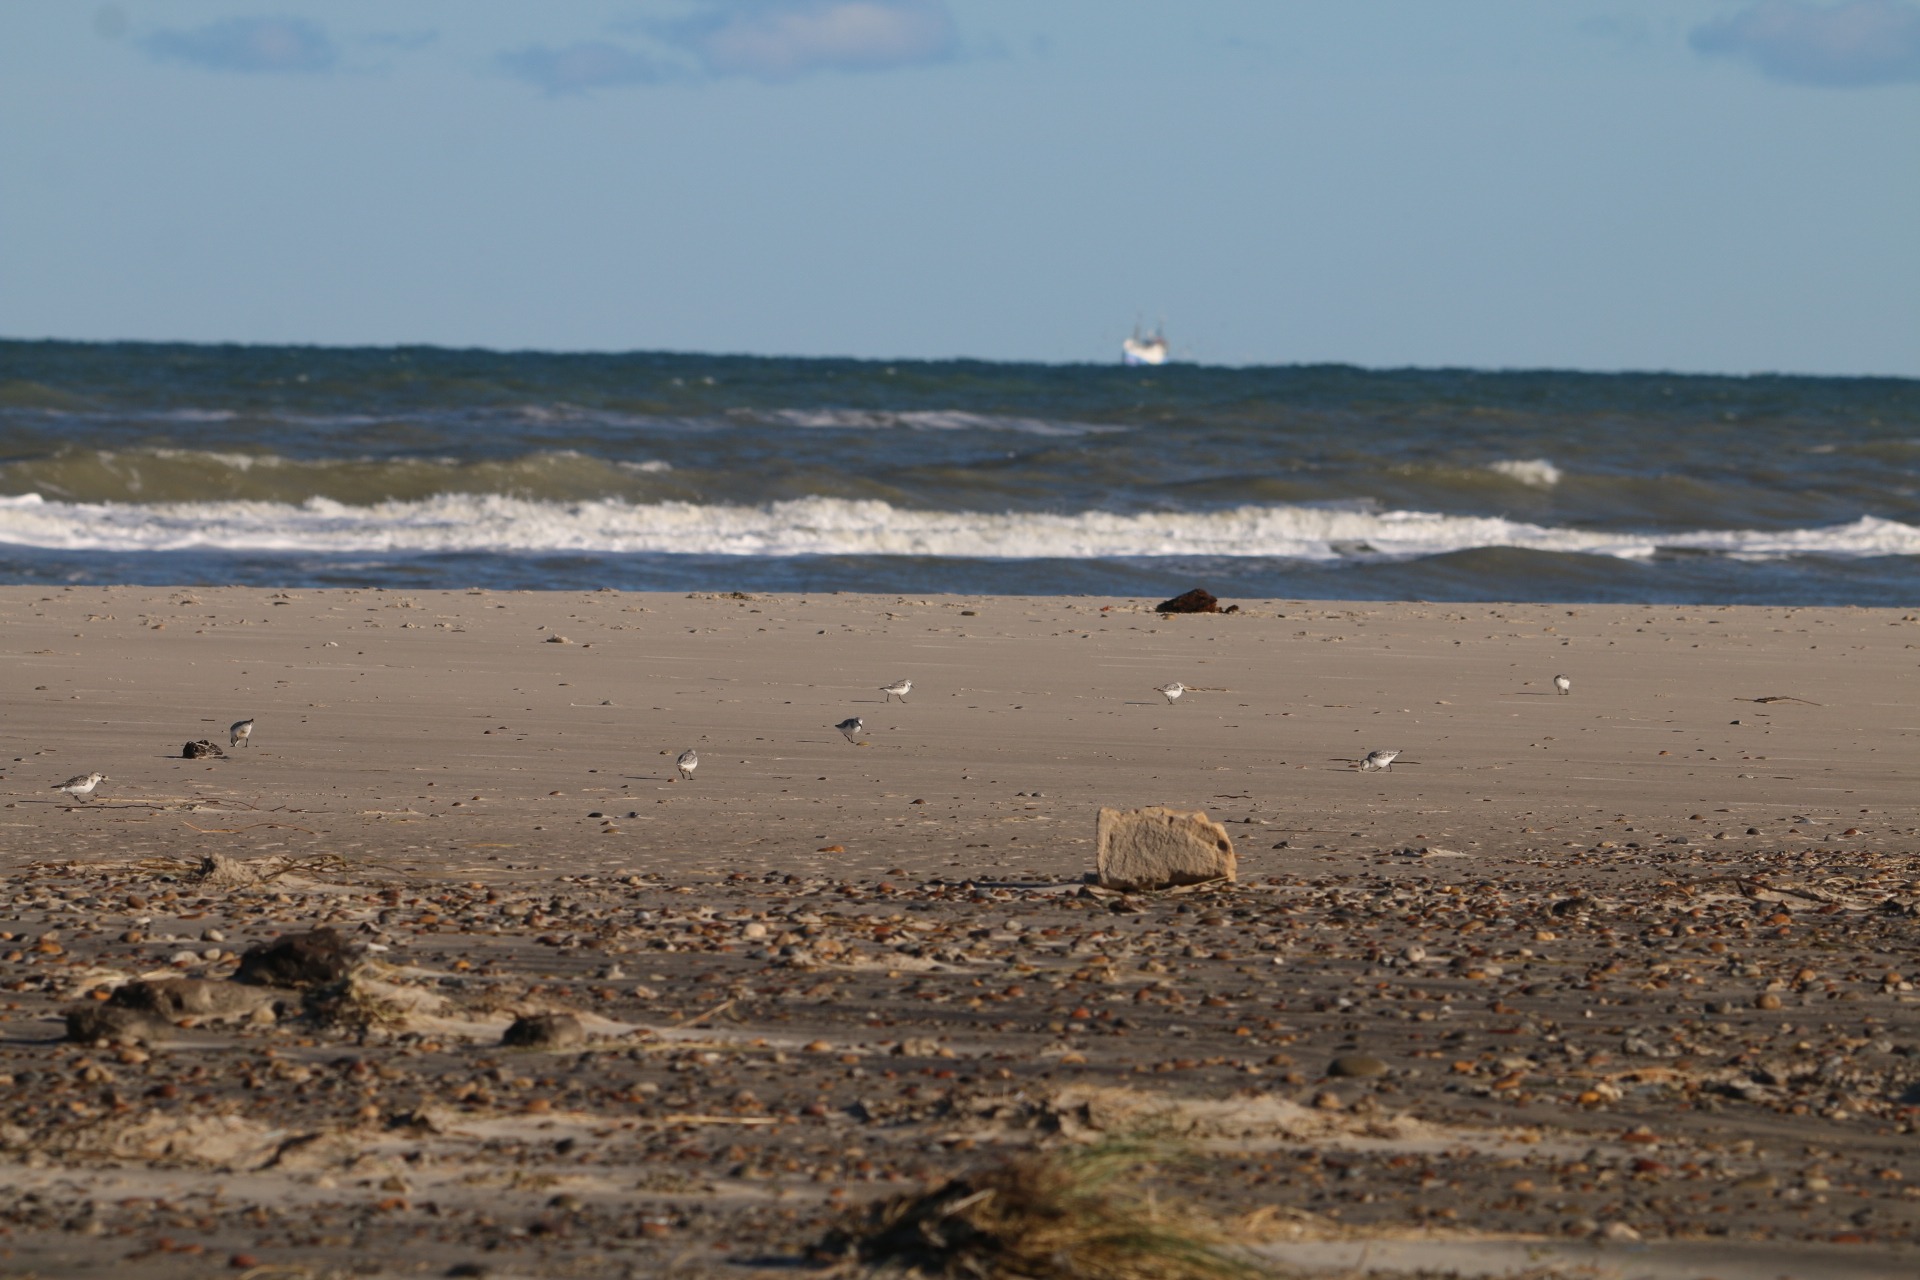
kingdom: Animalia
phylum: Chordata
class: Aves
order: Charadriiformes
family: Scolopacidae
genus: Calidris
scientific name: Calidris alba
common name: Sandløber
